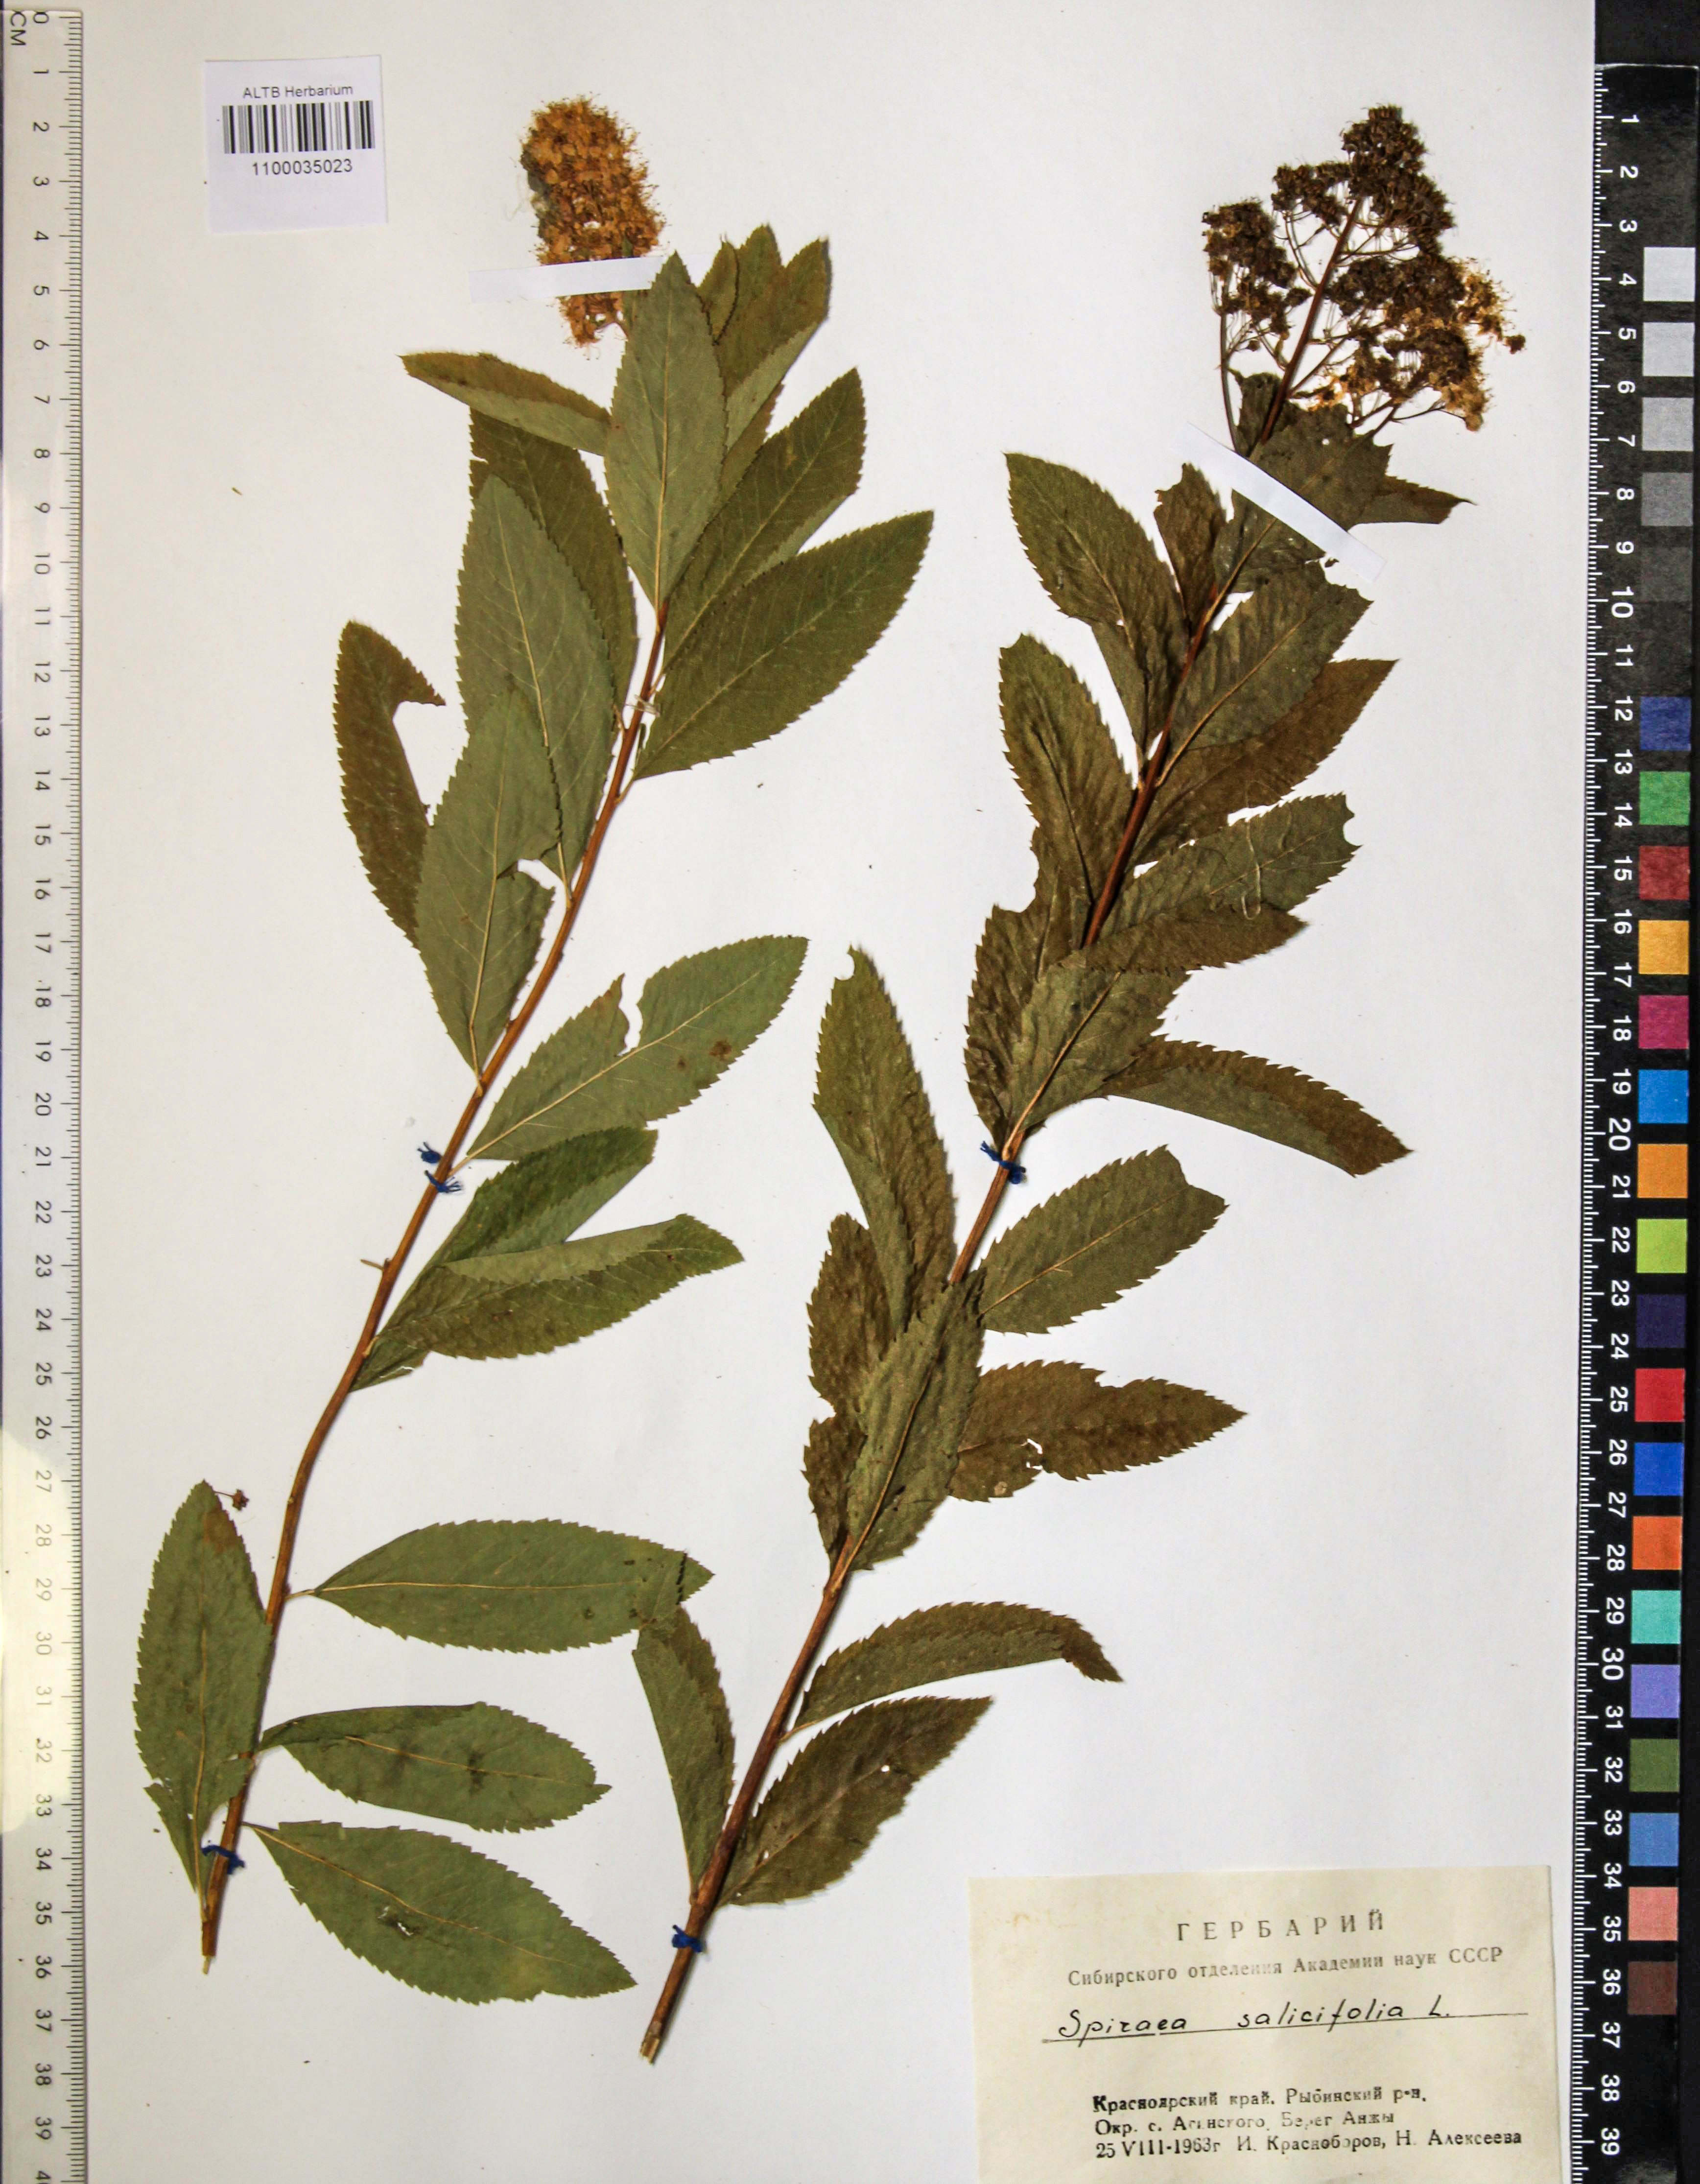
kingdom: Plantae
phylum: Tracheophyta
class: Magnoliopsida
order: Rosales
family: Rosaceae
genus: Spiraea
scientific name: Spiraea salicifolia
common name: Bridewort
